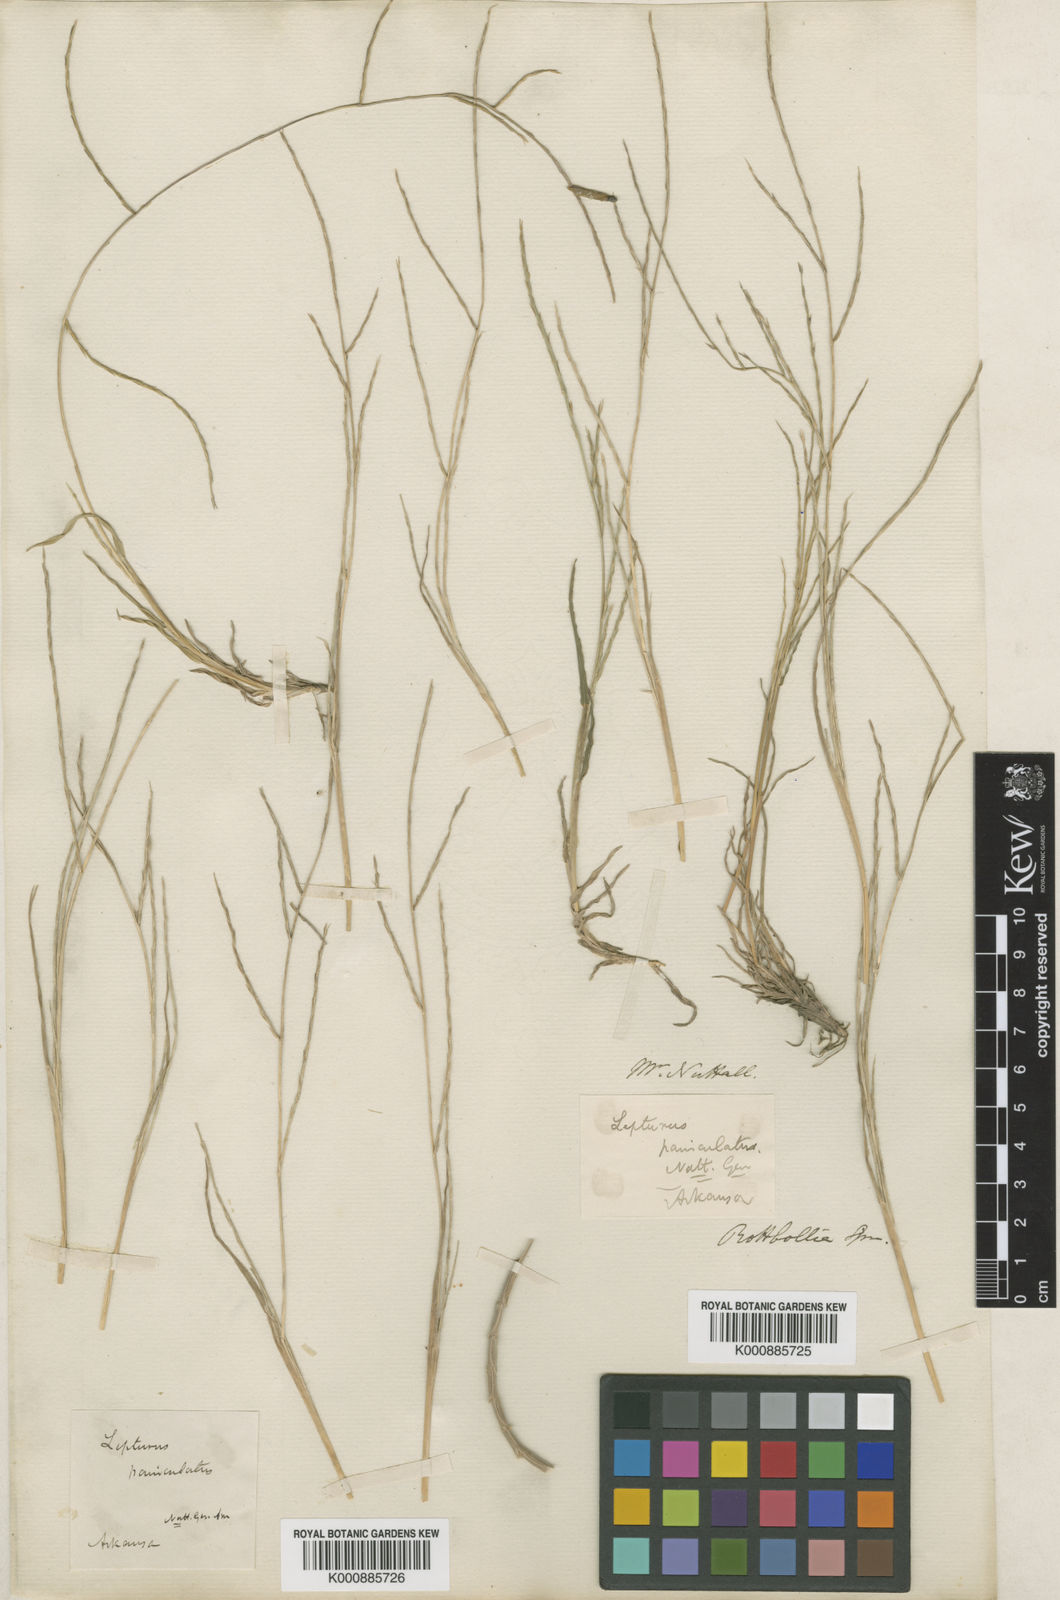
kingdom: Plantae
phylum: Tracheophyta
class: Liliopsida
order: Poales
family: Poaceae
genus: Muhlenbergia
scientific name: Muhlenbergia
